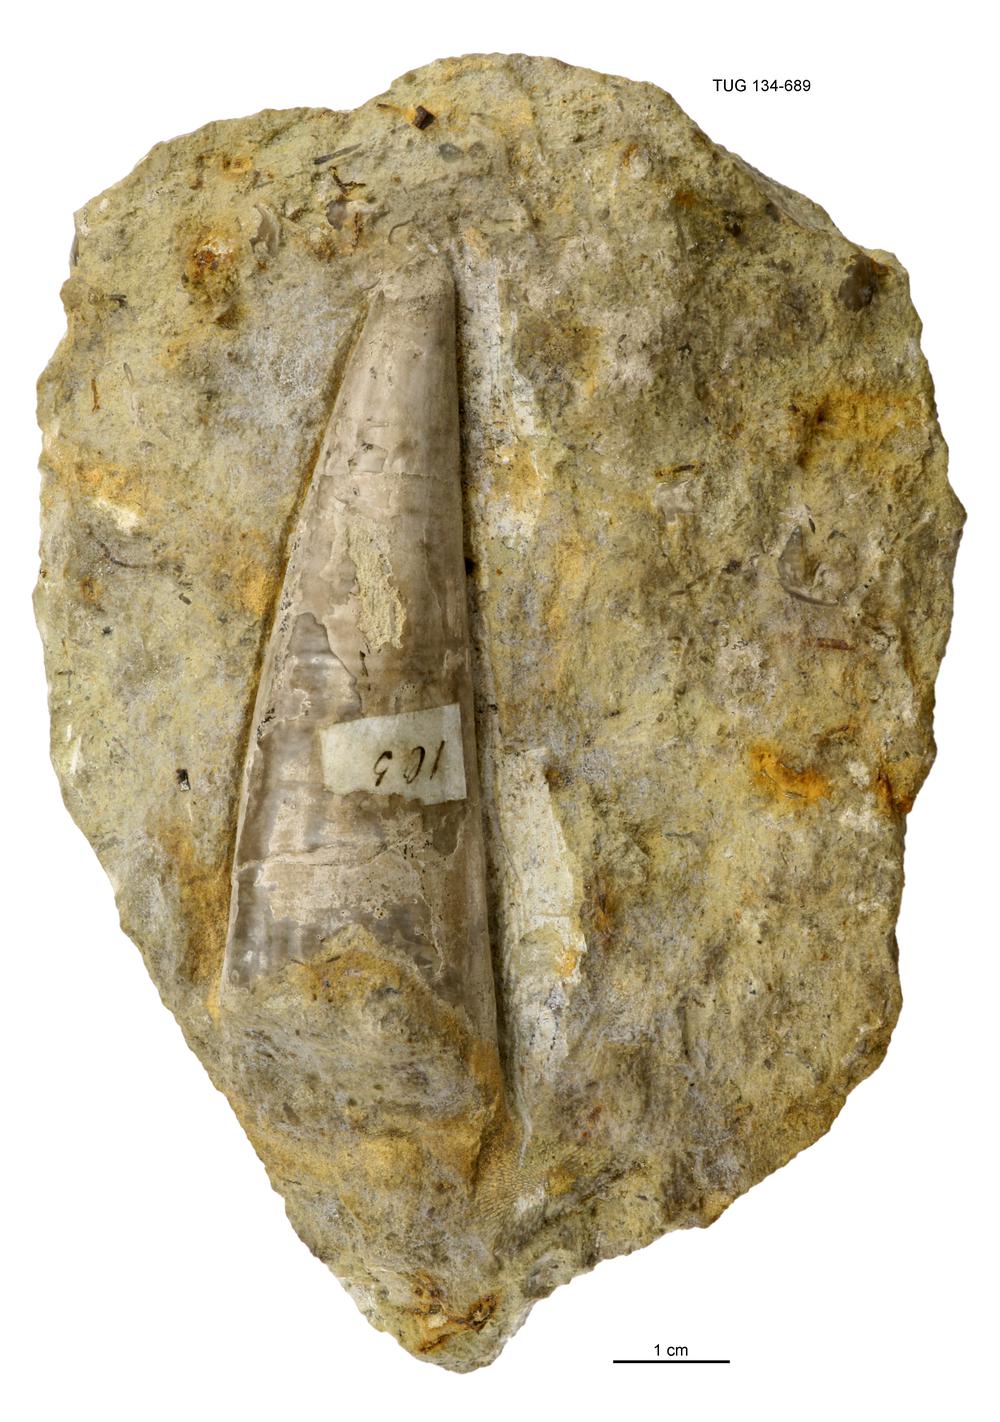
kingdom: Animalia
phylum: Annelida
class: Polychaeta
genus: Hyolithes
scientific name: Hyolithes acutus
